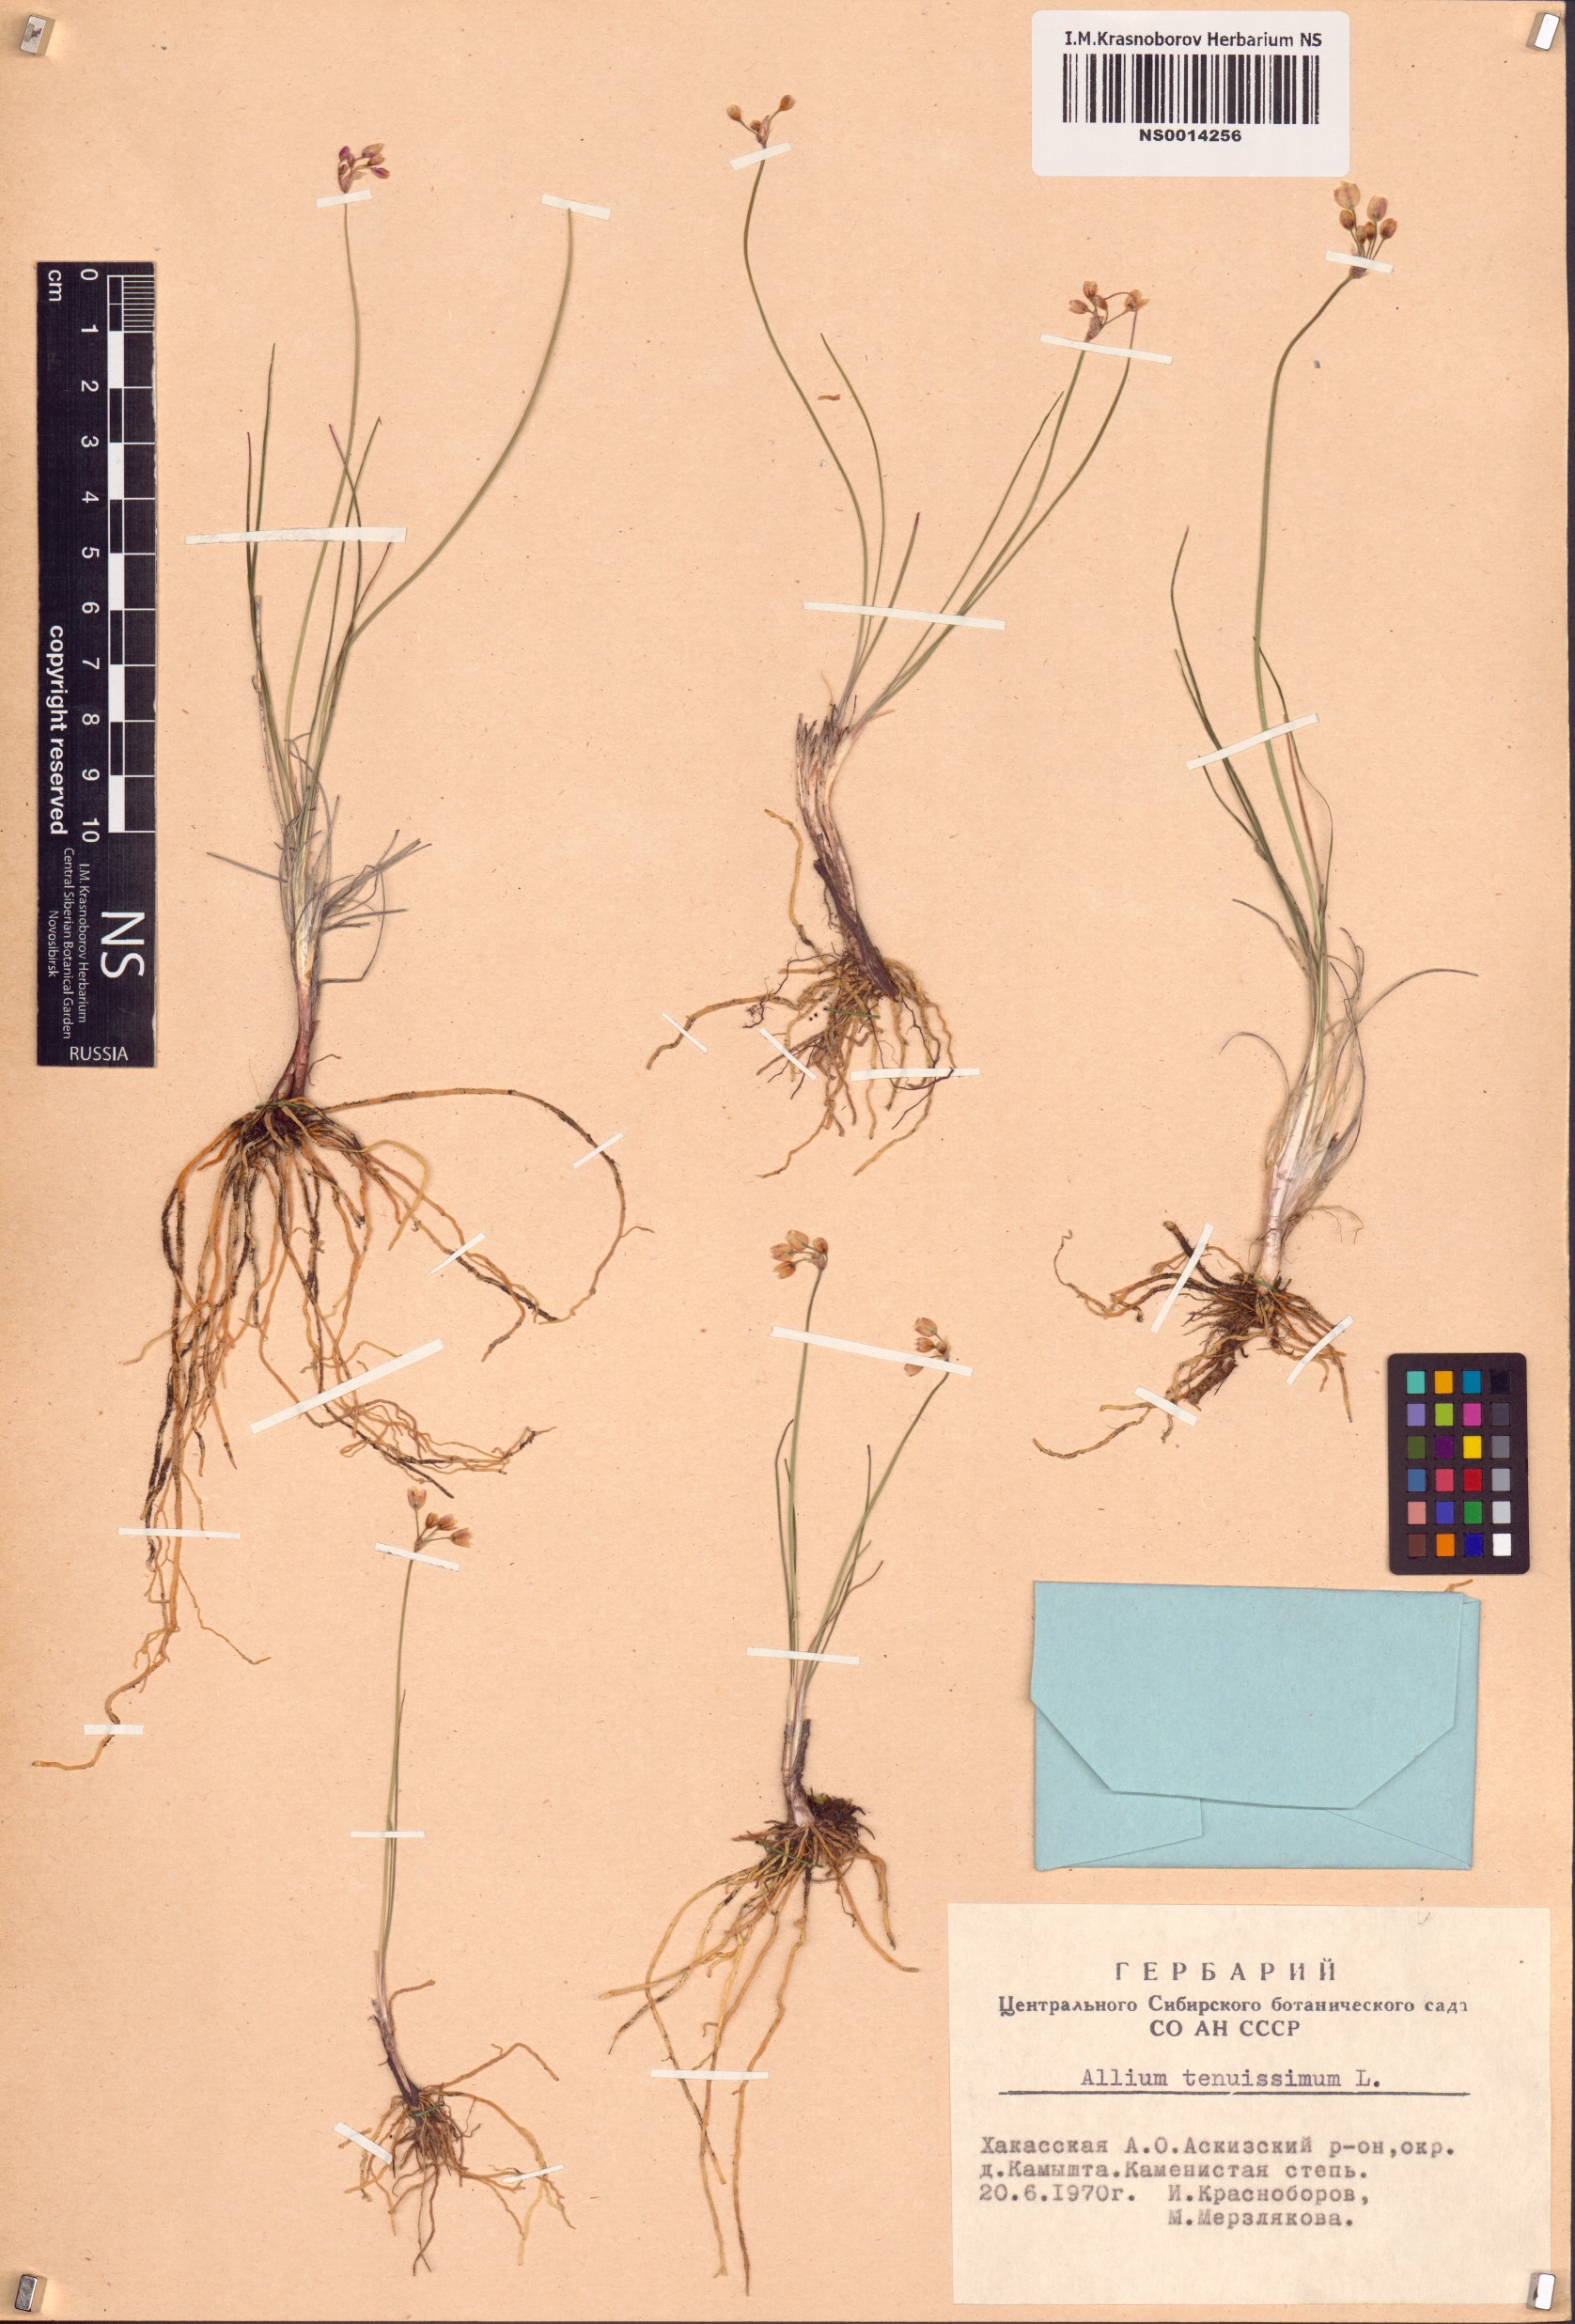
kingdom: Plantae
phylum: Tracheophyta
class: Liliopsida
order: Asparagales
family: Amaryllidaceae
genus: Allium
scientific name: Allium tenuissimum
